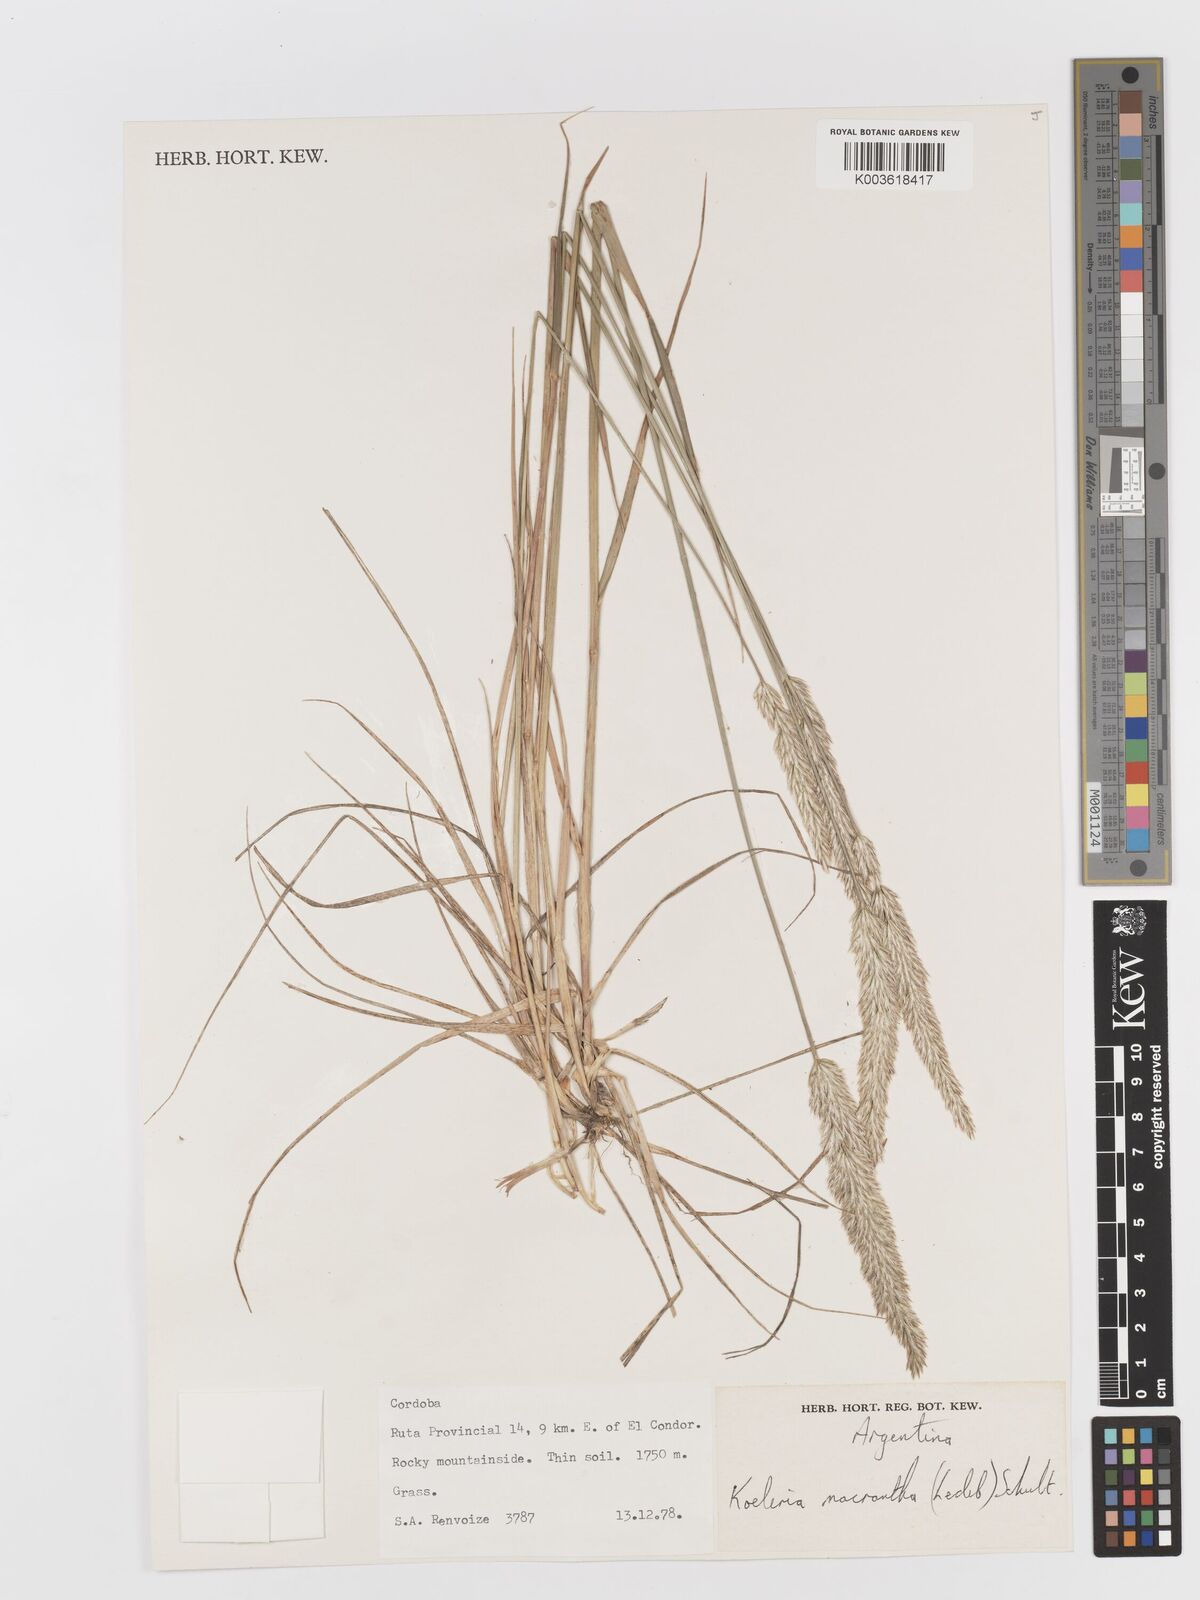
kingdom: Plantae
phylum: Tracheophyta
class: Liliopsida
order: Poales
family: Poaceae
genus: Koeleria
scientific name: Koeleria
